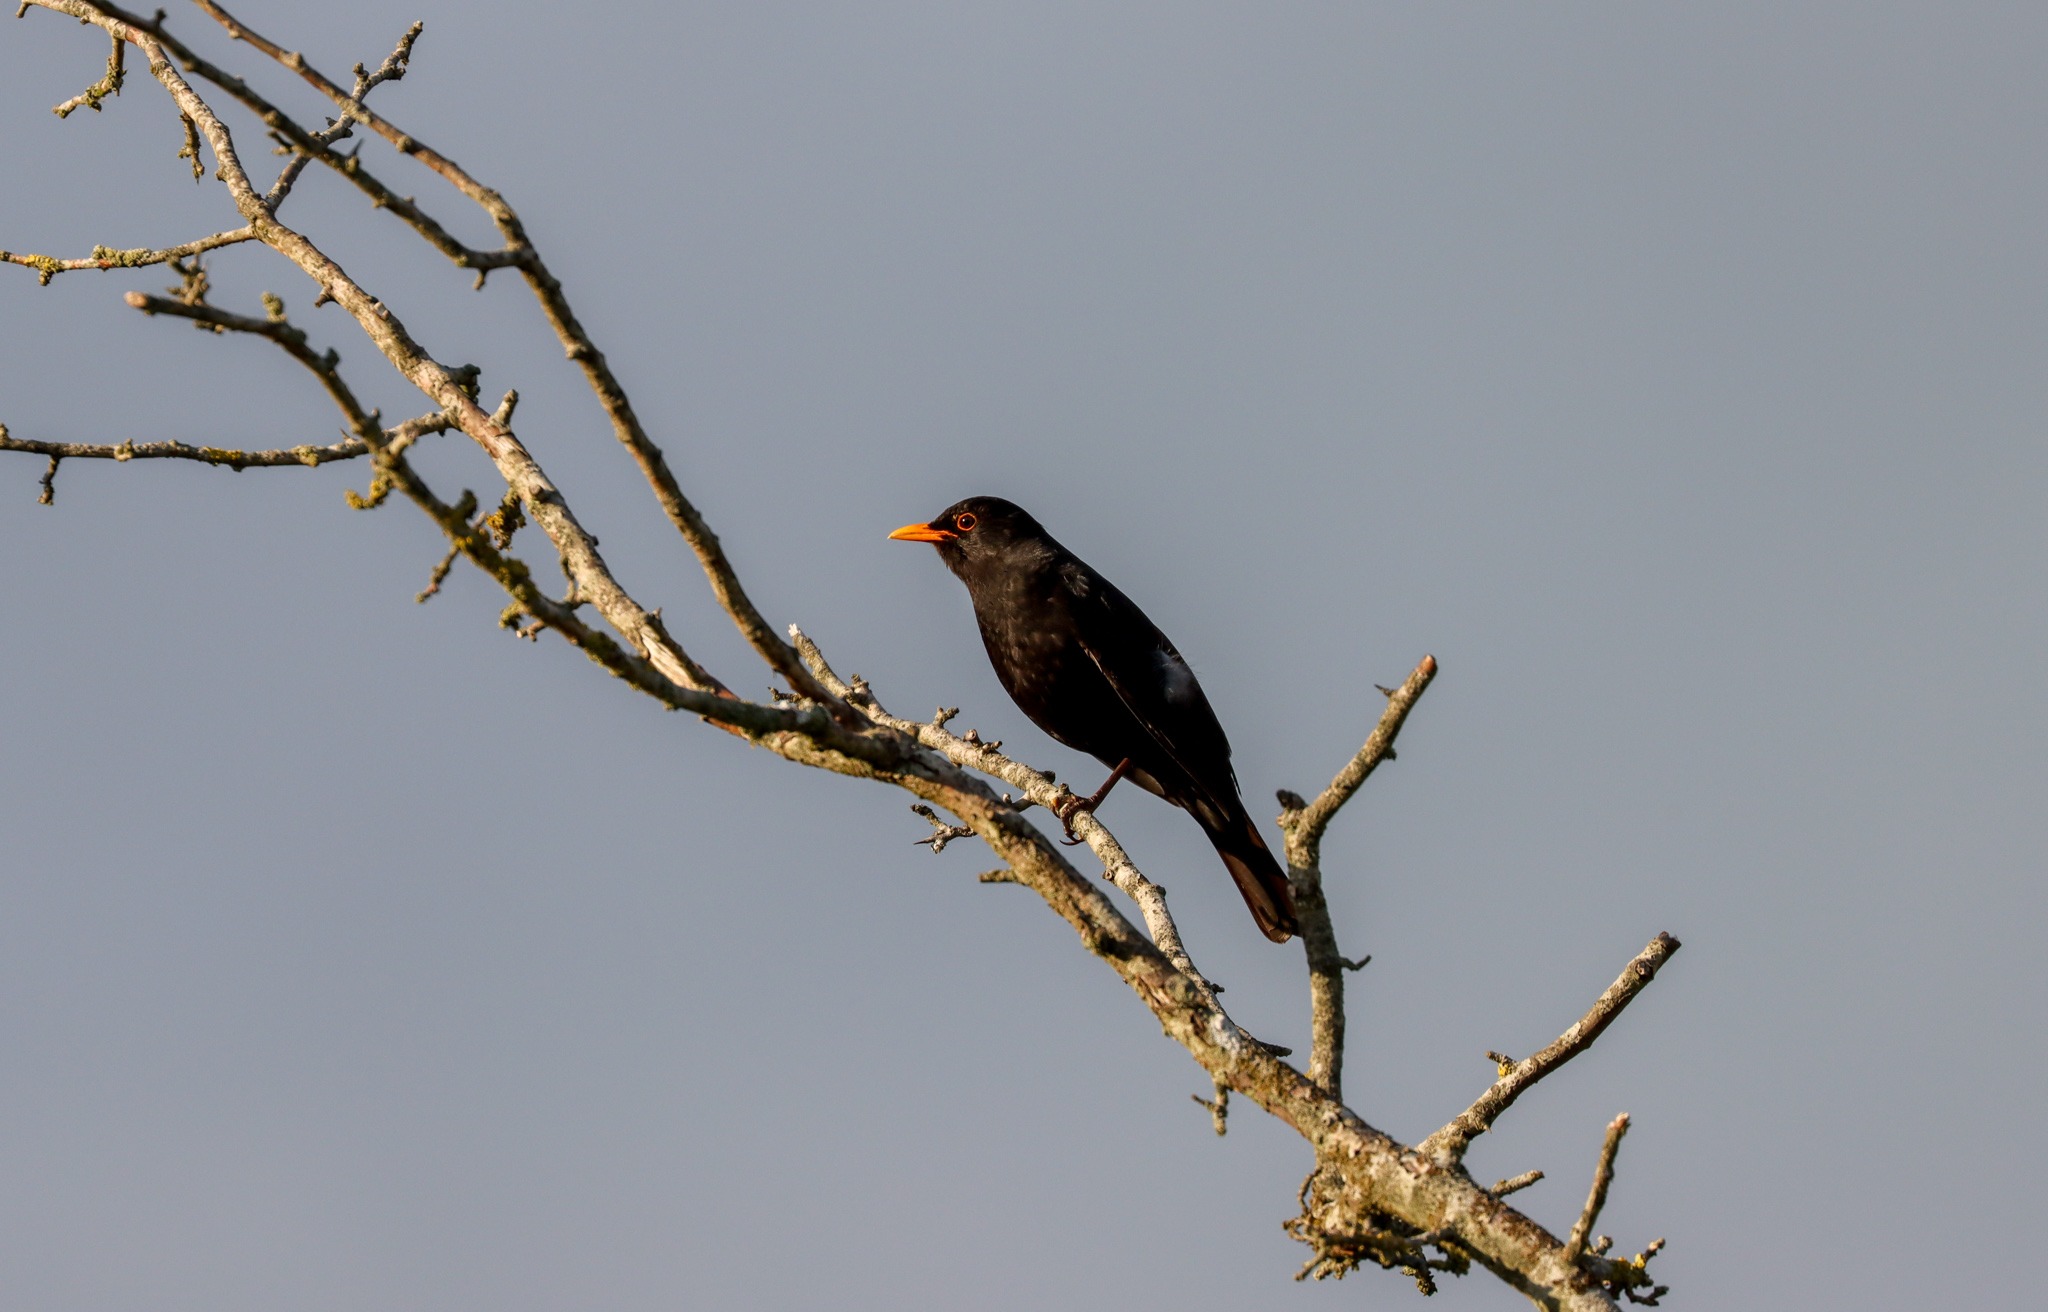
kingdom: Animalia
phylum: Chordata
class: Aves
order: Passeriformes
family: Turdidae
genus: Turdus
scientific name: Turdus merula
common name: Solsort
